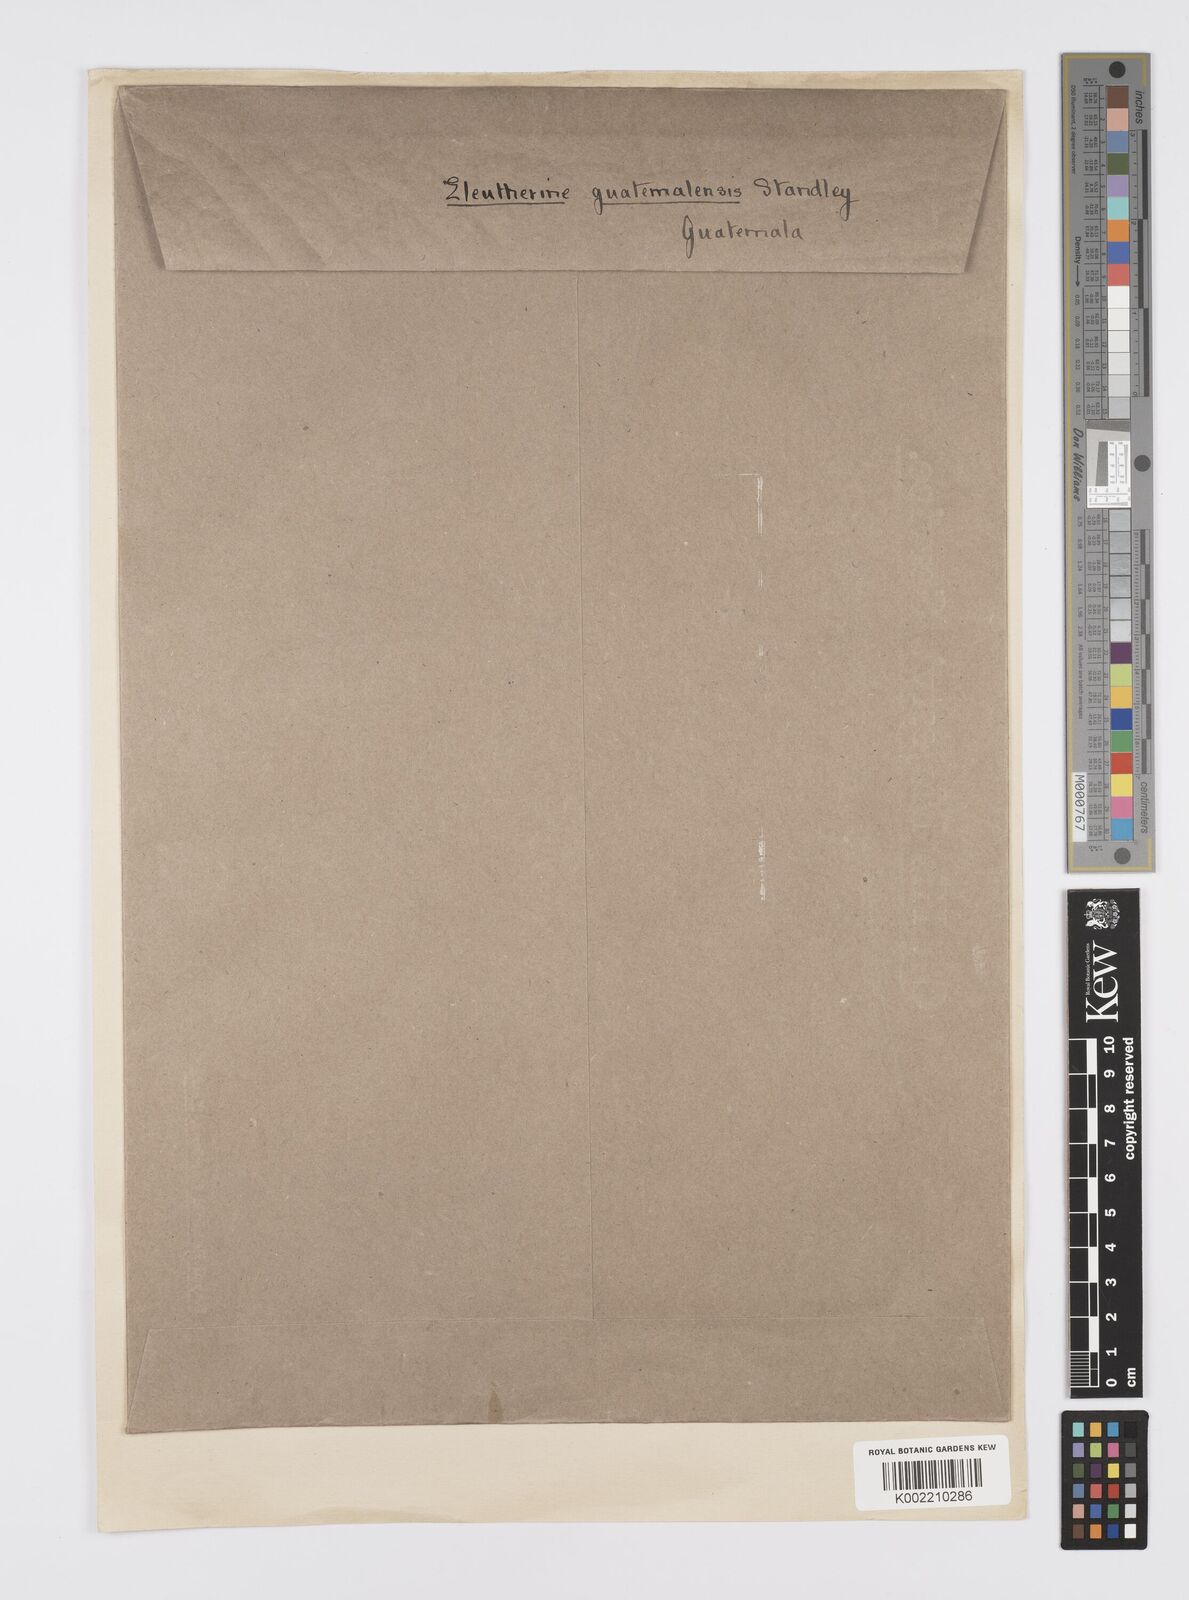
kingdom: Plantae
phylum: Tracheophyta
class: Liliopsida
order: Asparagales
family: Iridaceae
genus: Cobana
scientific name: Cobana guatemalensis
